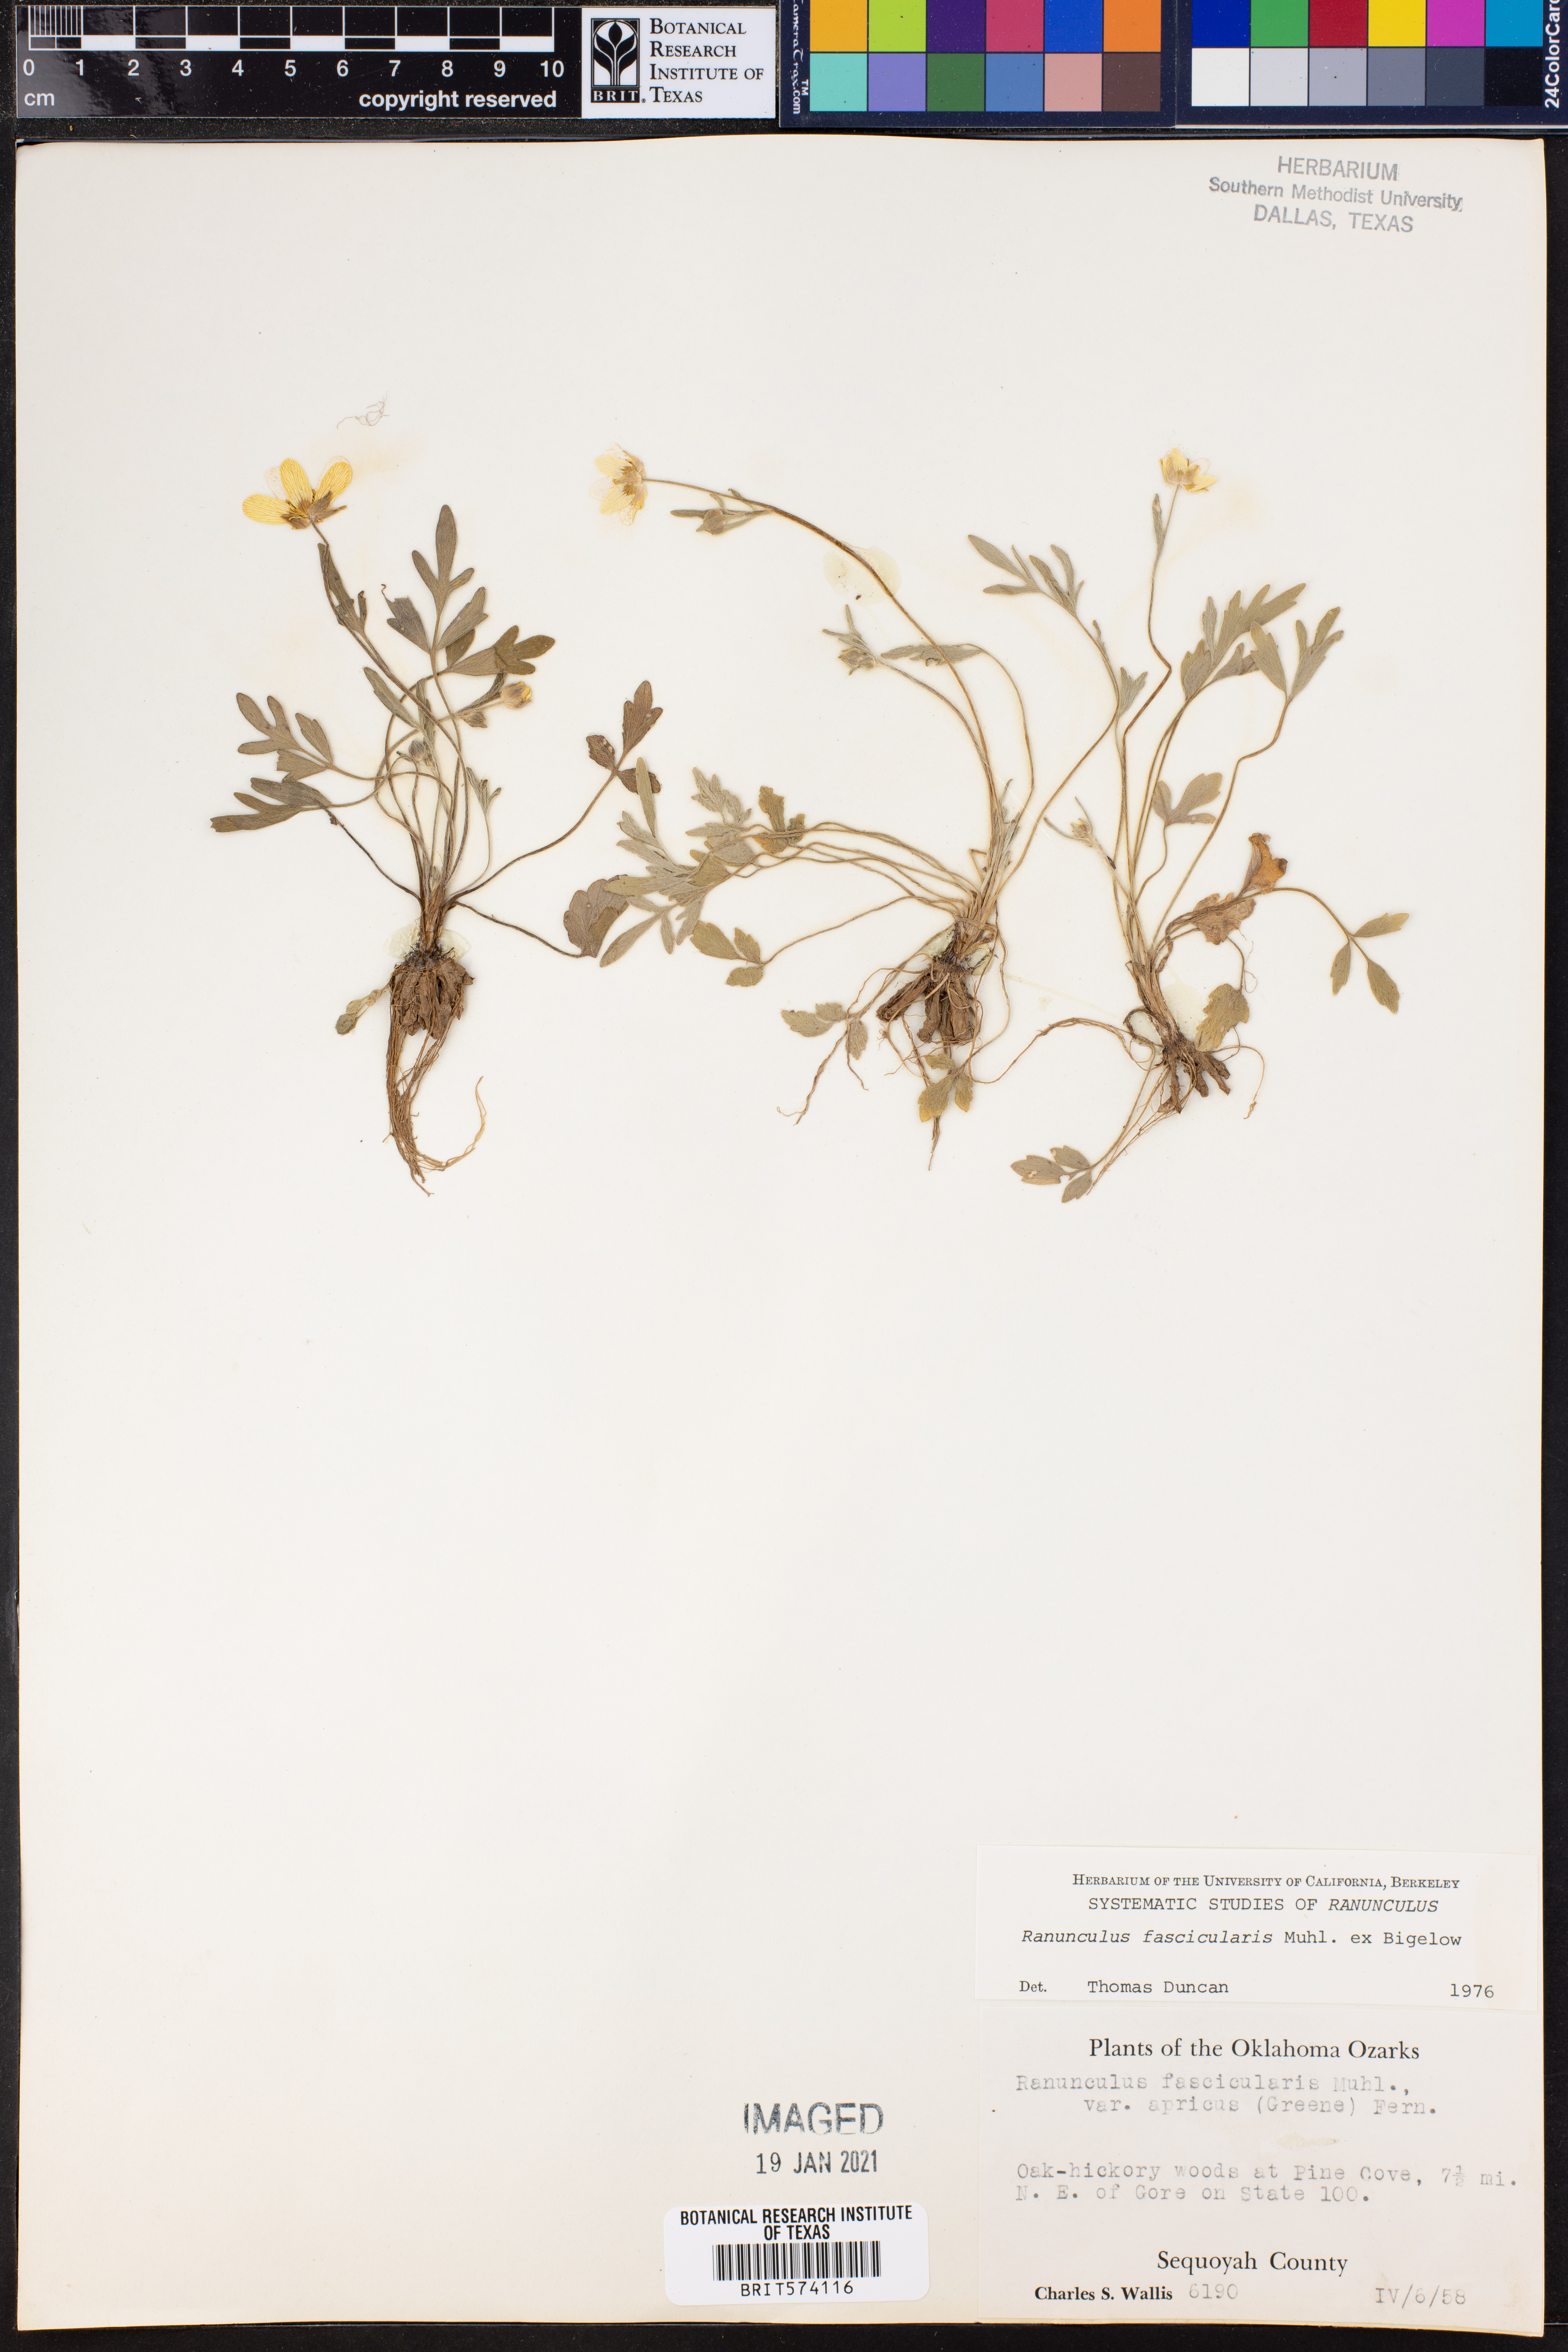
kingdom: Plantae
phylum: Tracheophyta
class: Magnoliopsida
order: Ranunculales
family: Ranunculaceae
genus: Ranunculus
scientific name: Ranunculus fascicularis
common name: Early buttercup
